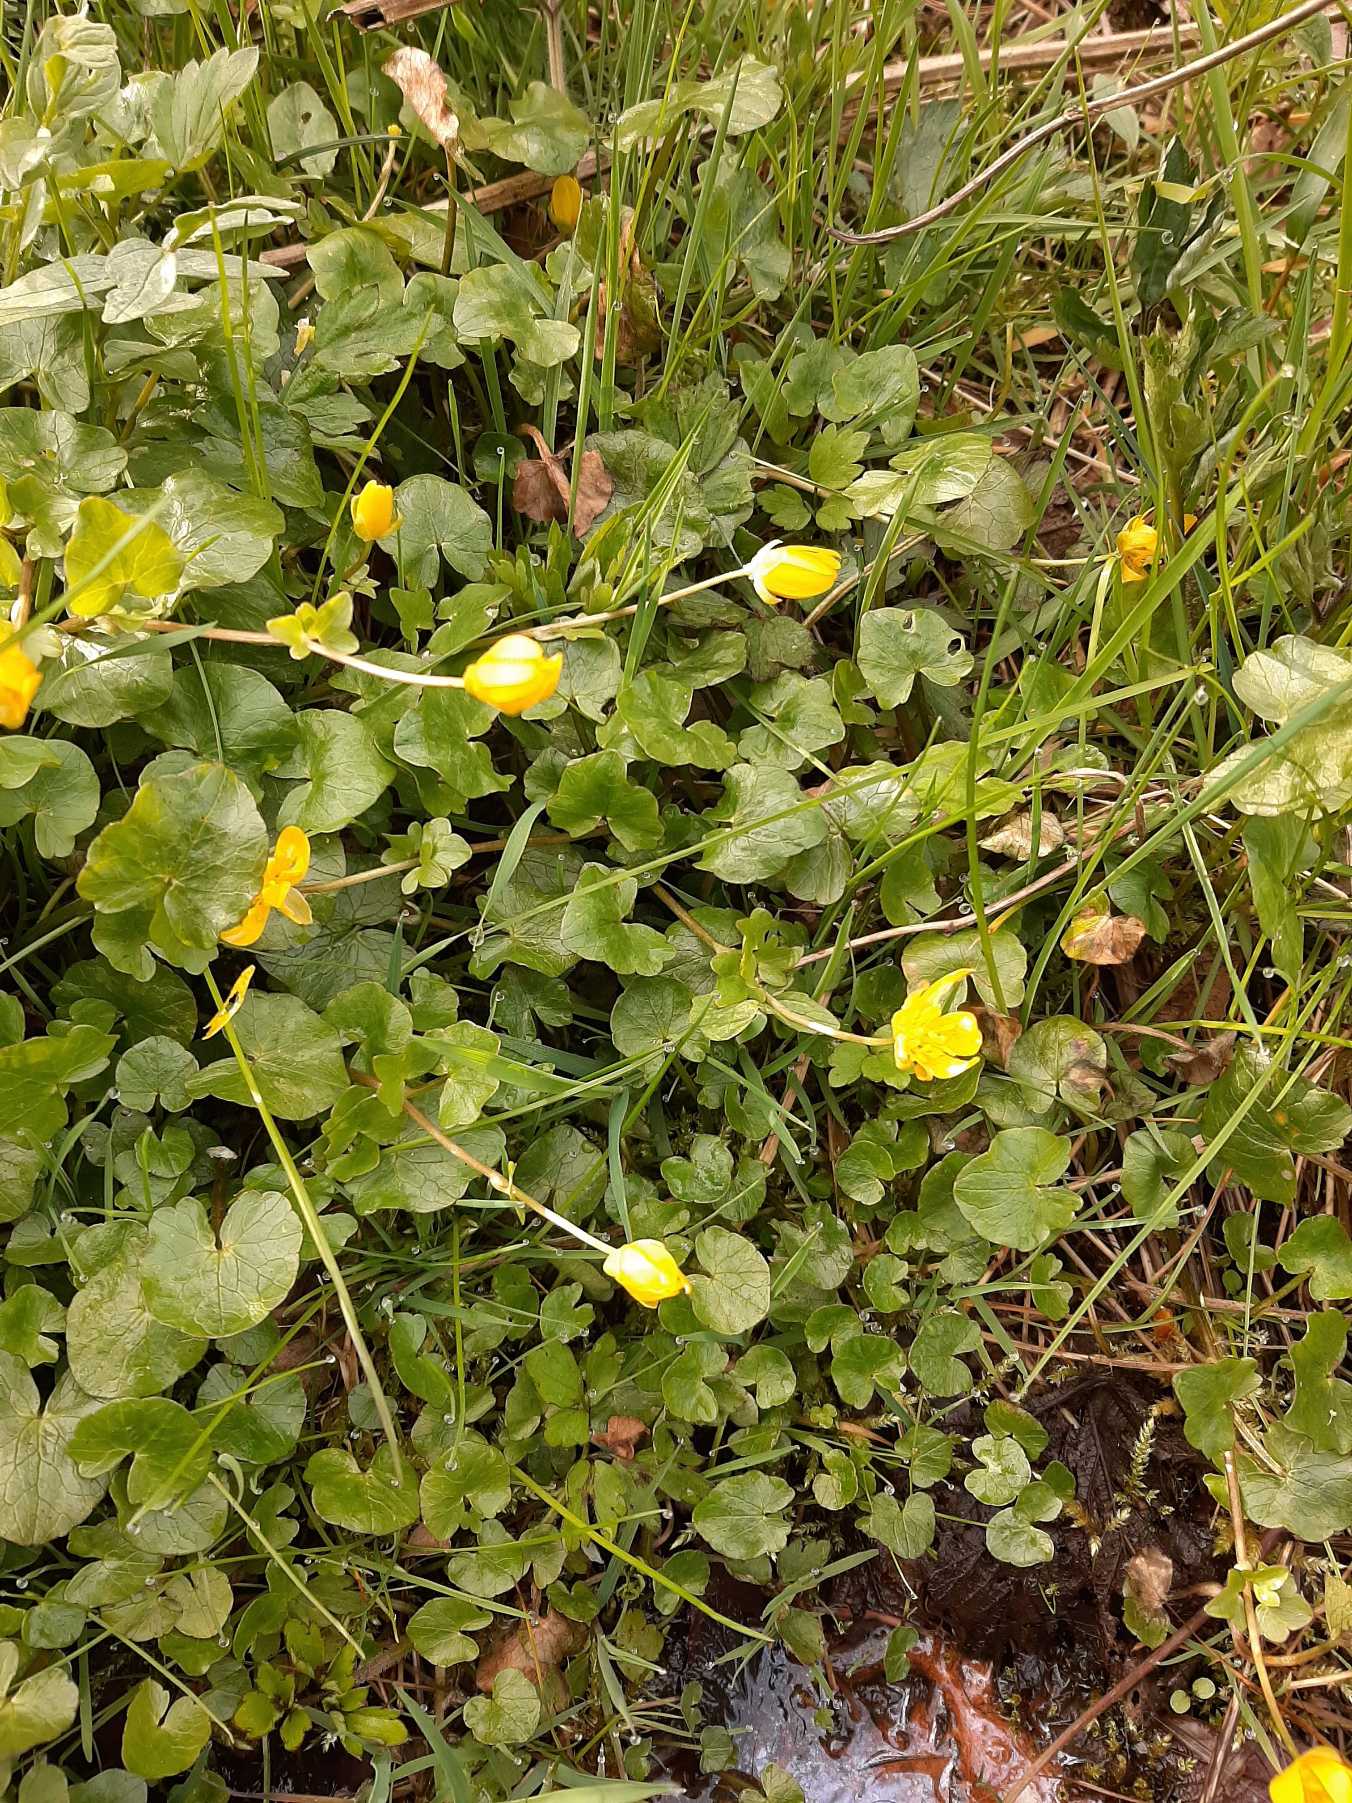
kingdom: Plantae
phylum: Tracheophyta
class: Magnoliopsida
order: Ranunculales
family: Ranunculaceae
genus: Ficaria
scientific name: Ficaria verna
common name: Vorterod
